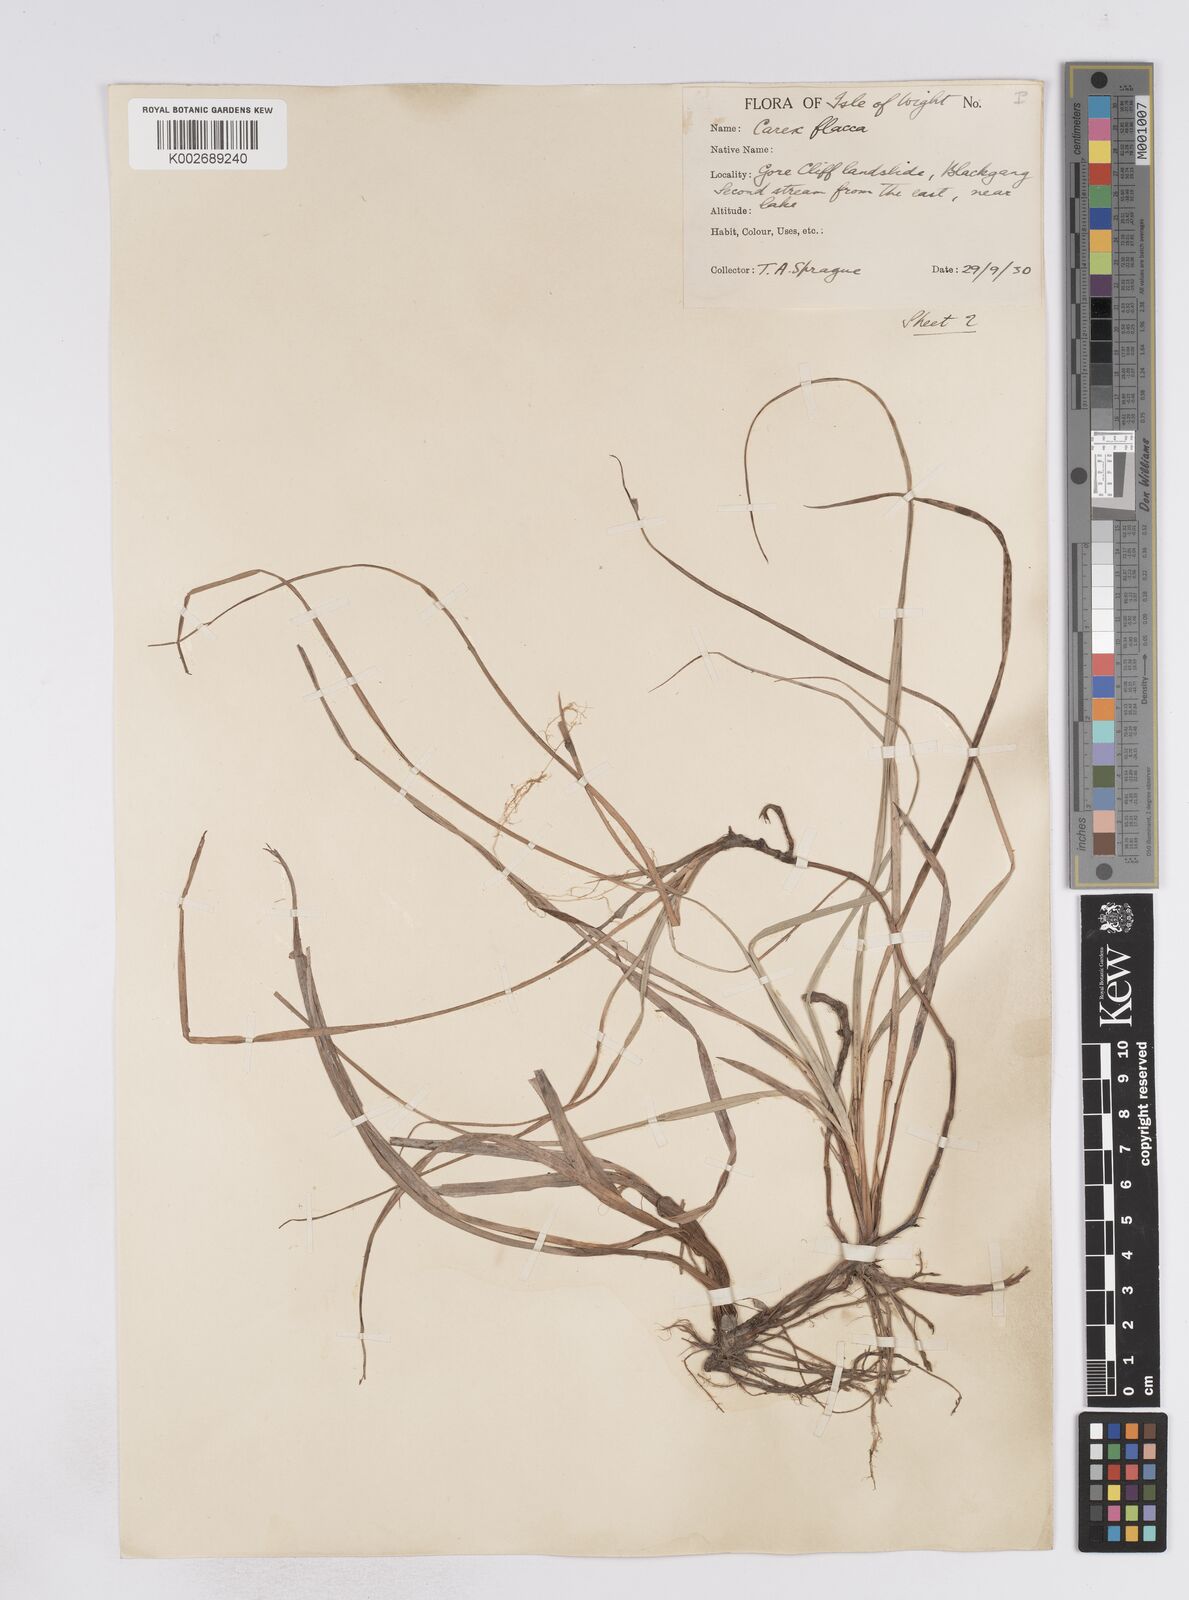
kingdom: Plantae
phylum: Tracheophyta
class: Liliopsida
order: Poales
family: Cyperaceae
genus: Carex
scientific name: Carex flacca
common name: Glaucous sedge
